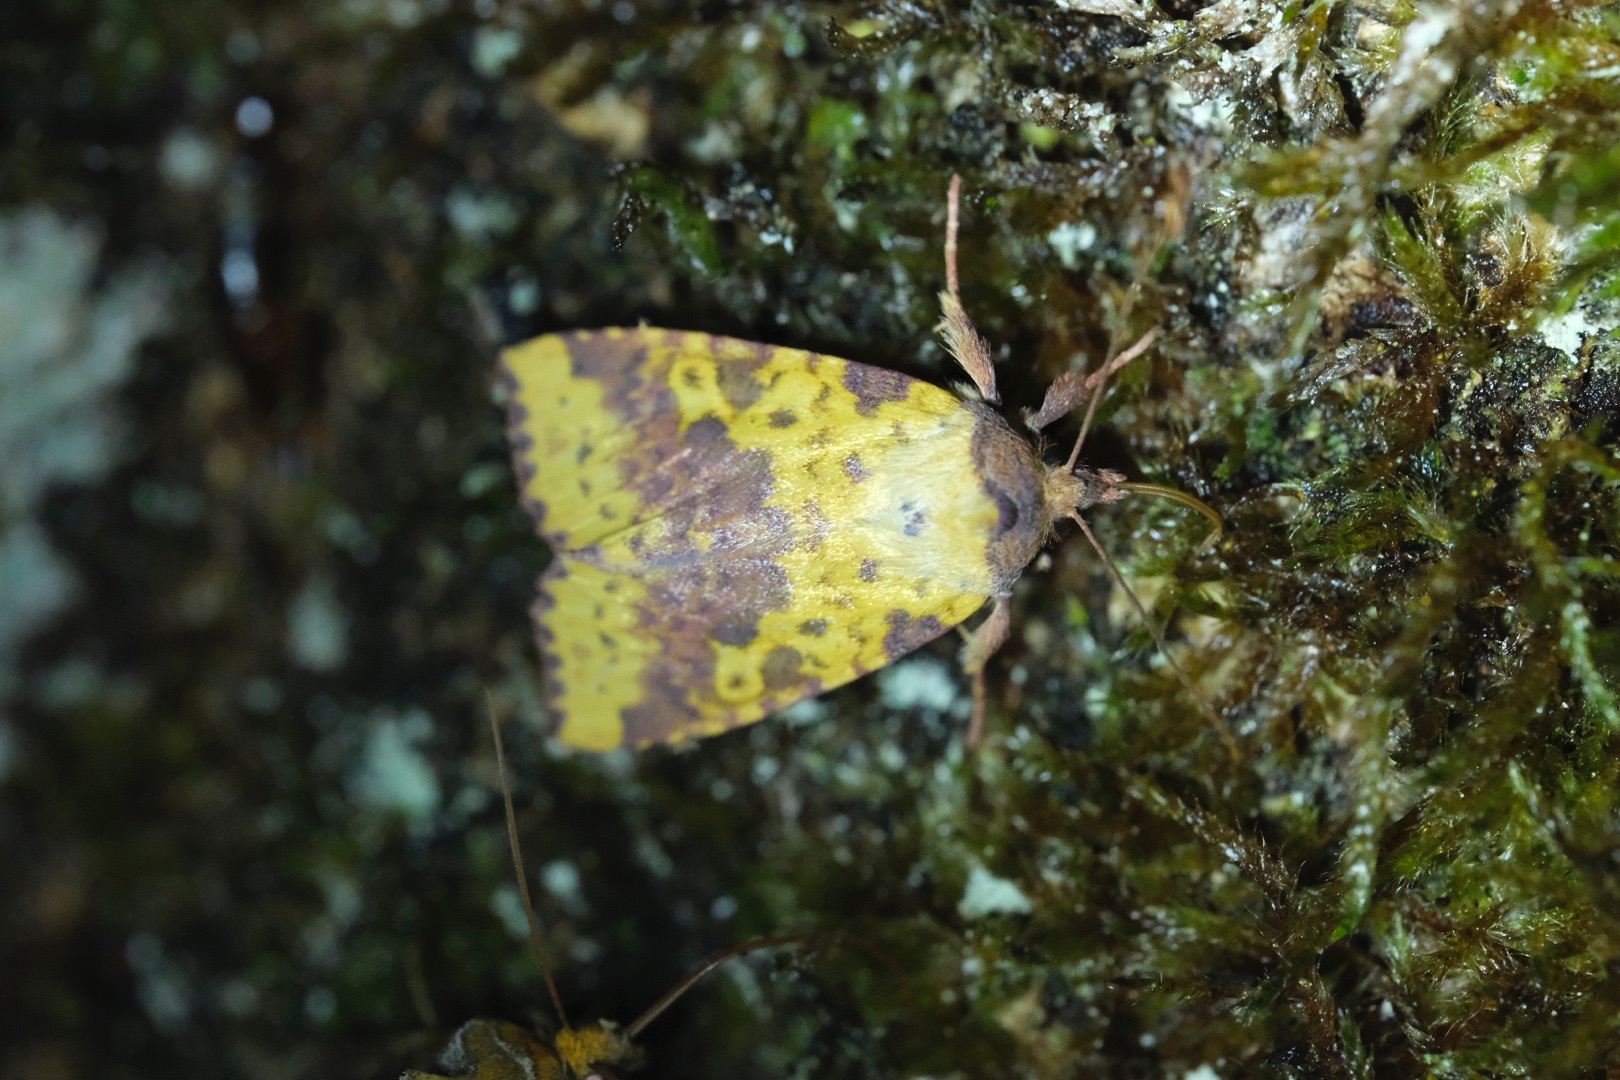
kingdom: Animalia
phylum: Arthropoda
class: Insecta
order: Lepidoptera
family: Noctuidae
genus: Xanthia
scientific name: Xanthia togata
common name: Toga-septemberugle
